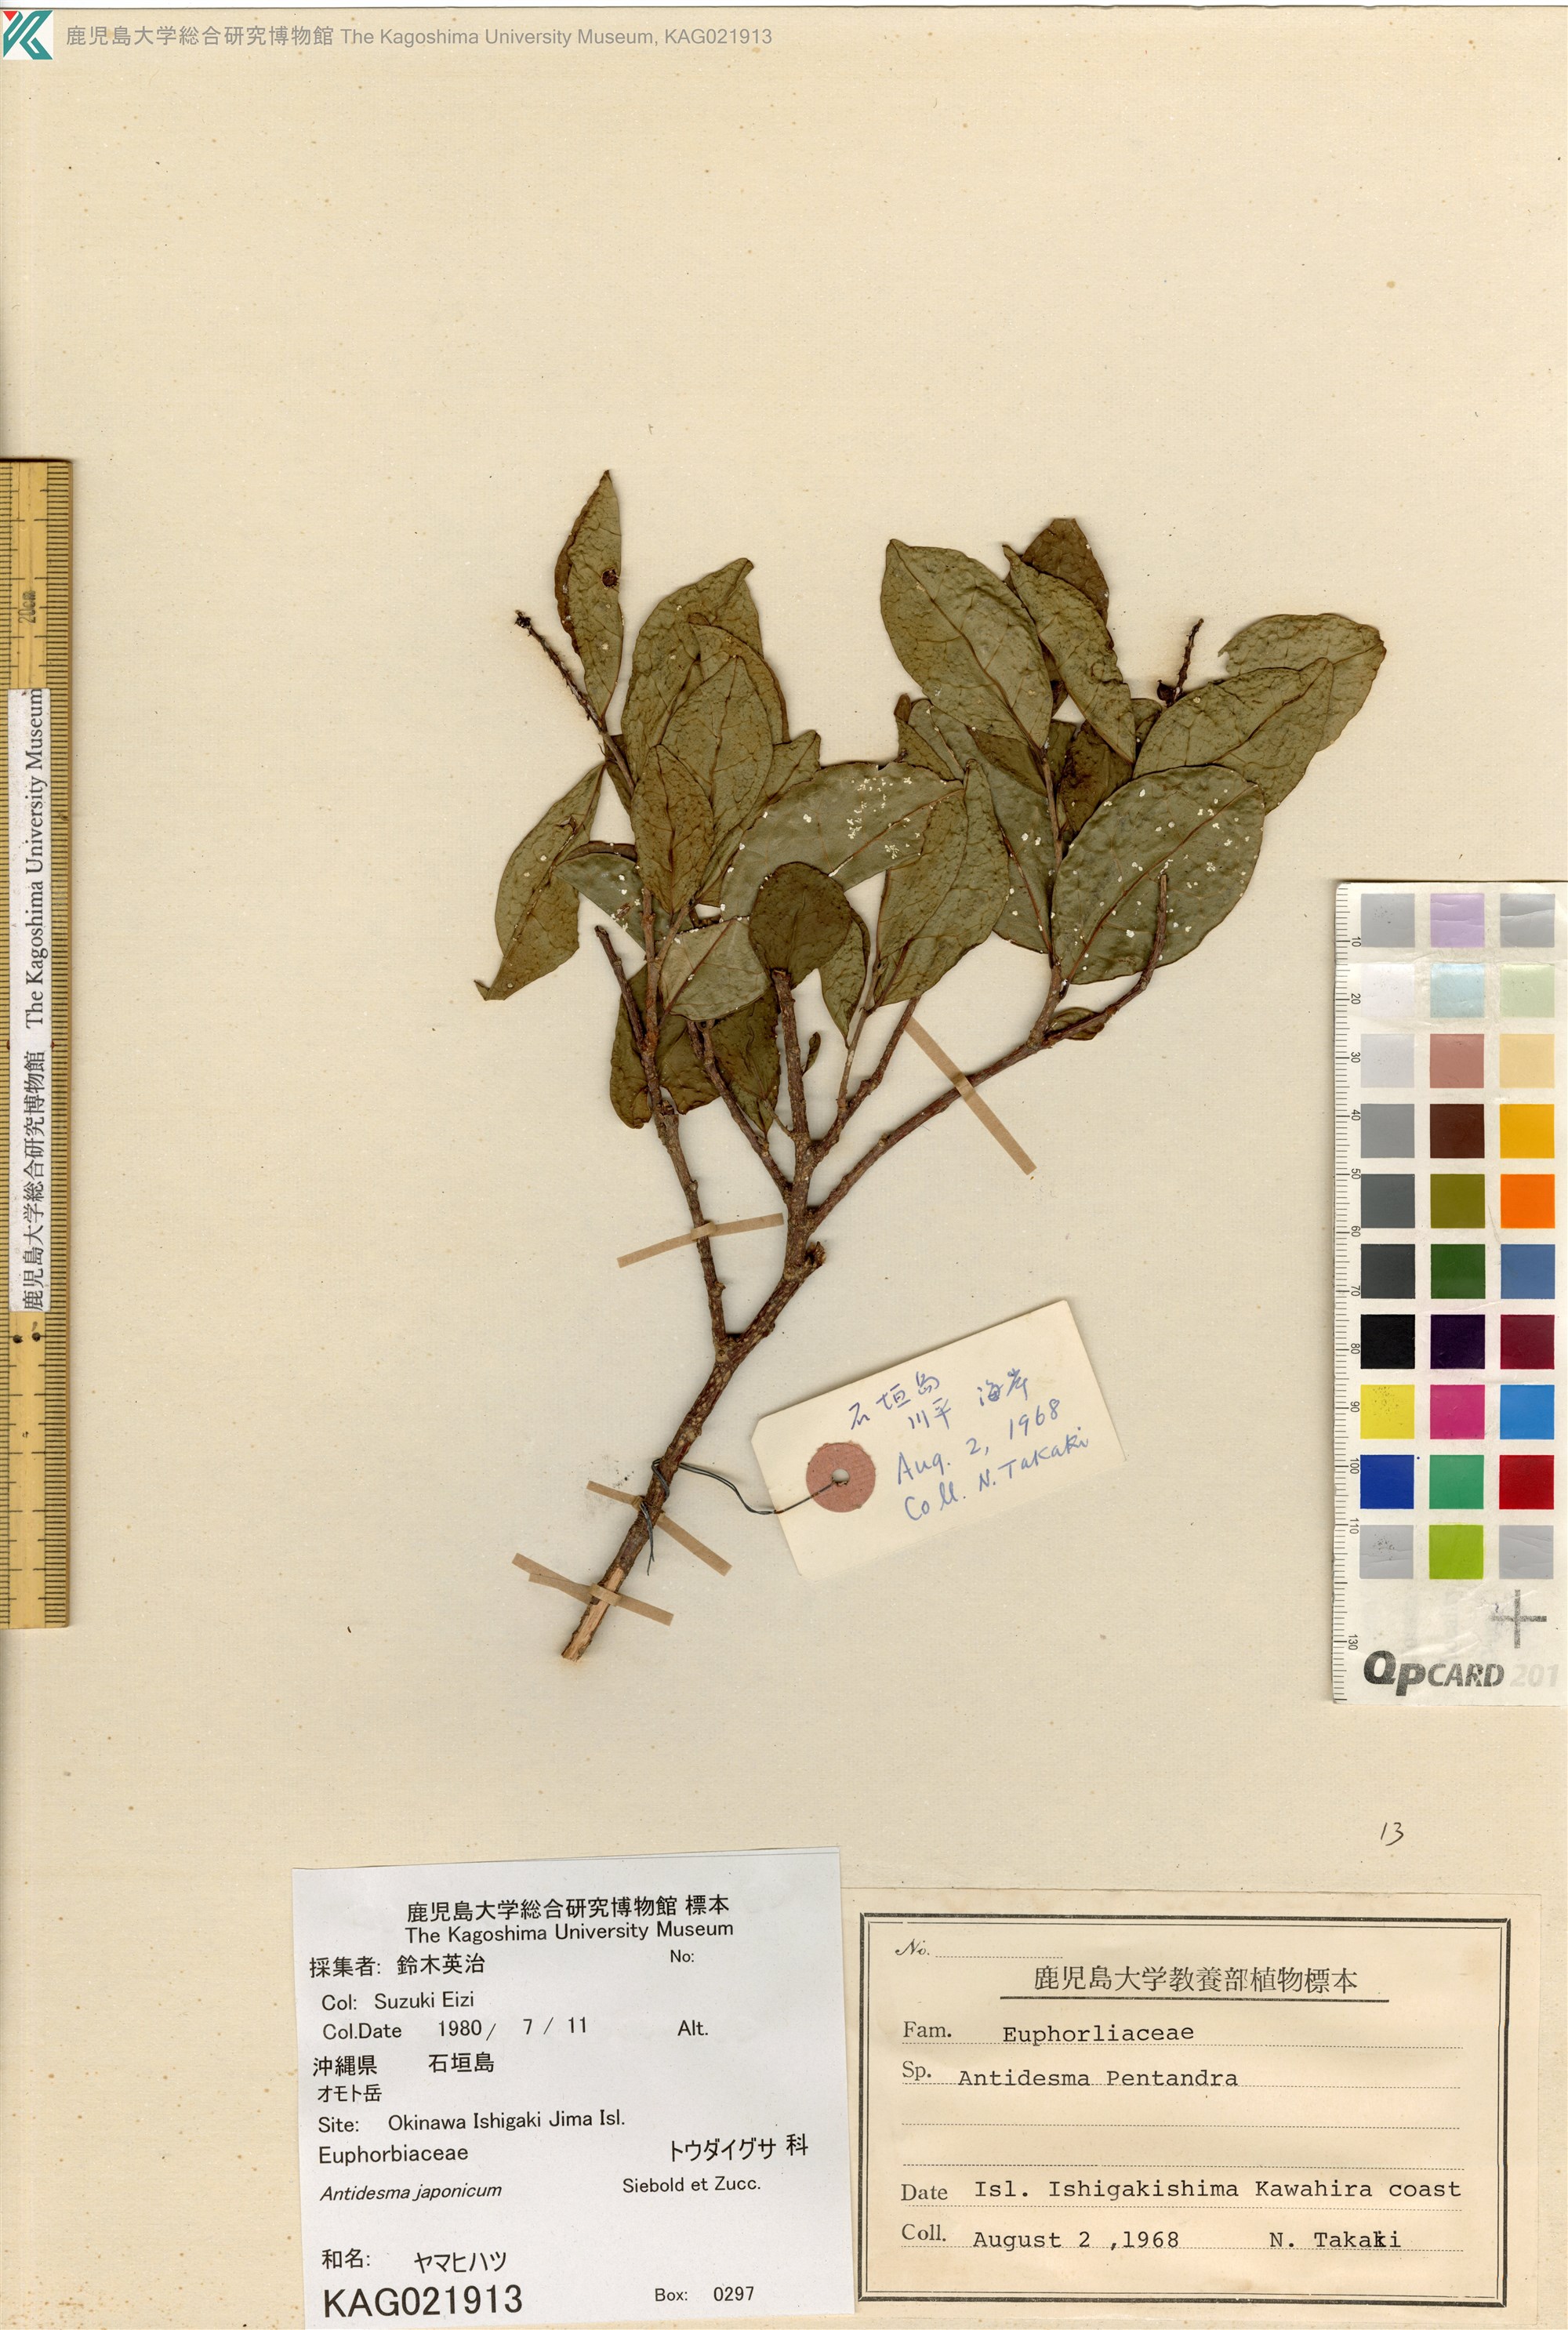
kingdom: Plantae
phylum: Tracheophyta
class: Magnoliopsida
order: Malpighiales
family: Phyllanthaceae
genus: Antidesma
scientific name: Antidesma japonicum
